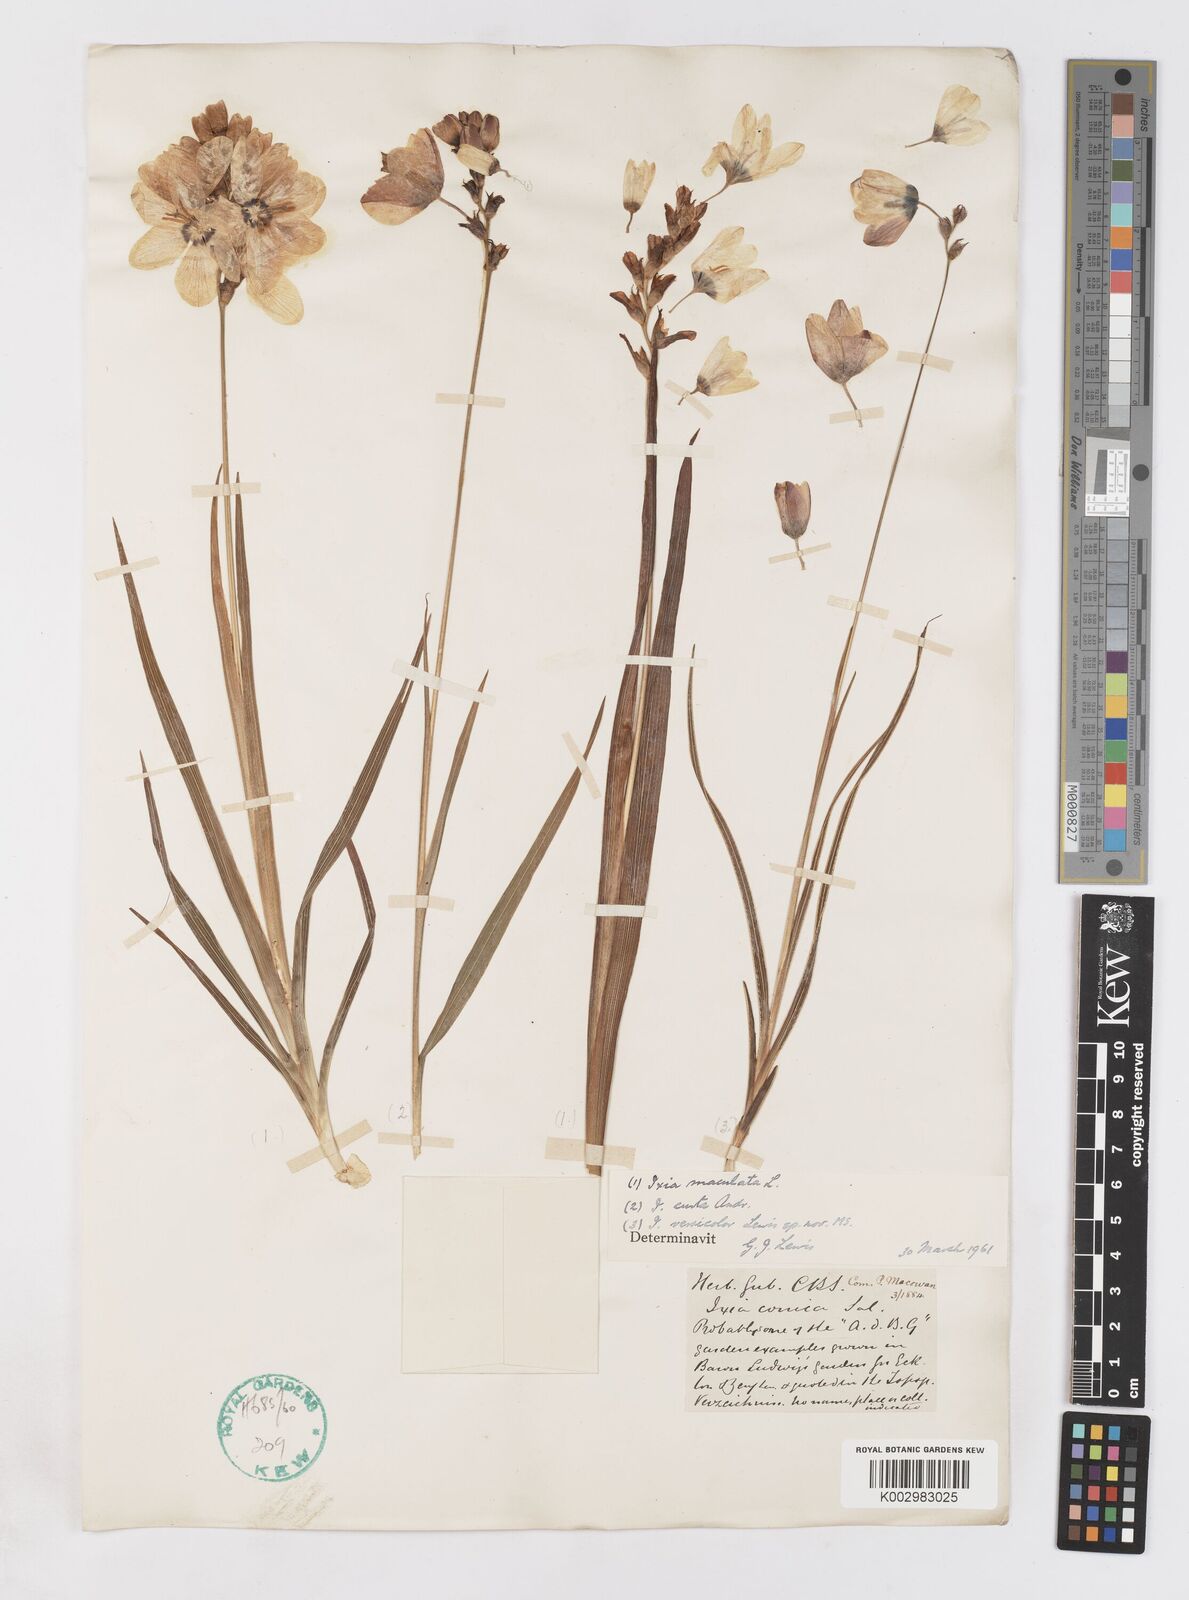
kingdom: Plantae
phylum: Tracheophyta
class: Liliopsida
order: Asparagales
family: Iridaceae
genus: Ixia
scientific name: Ixia
